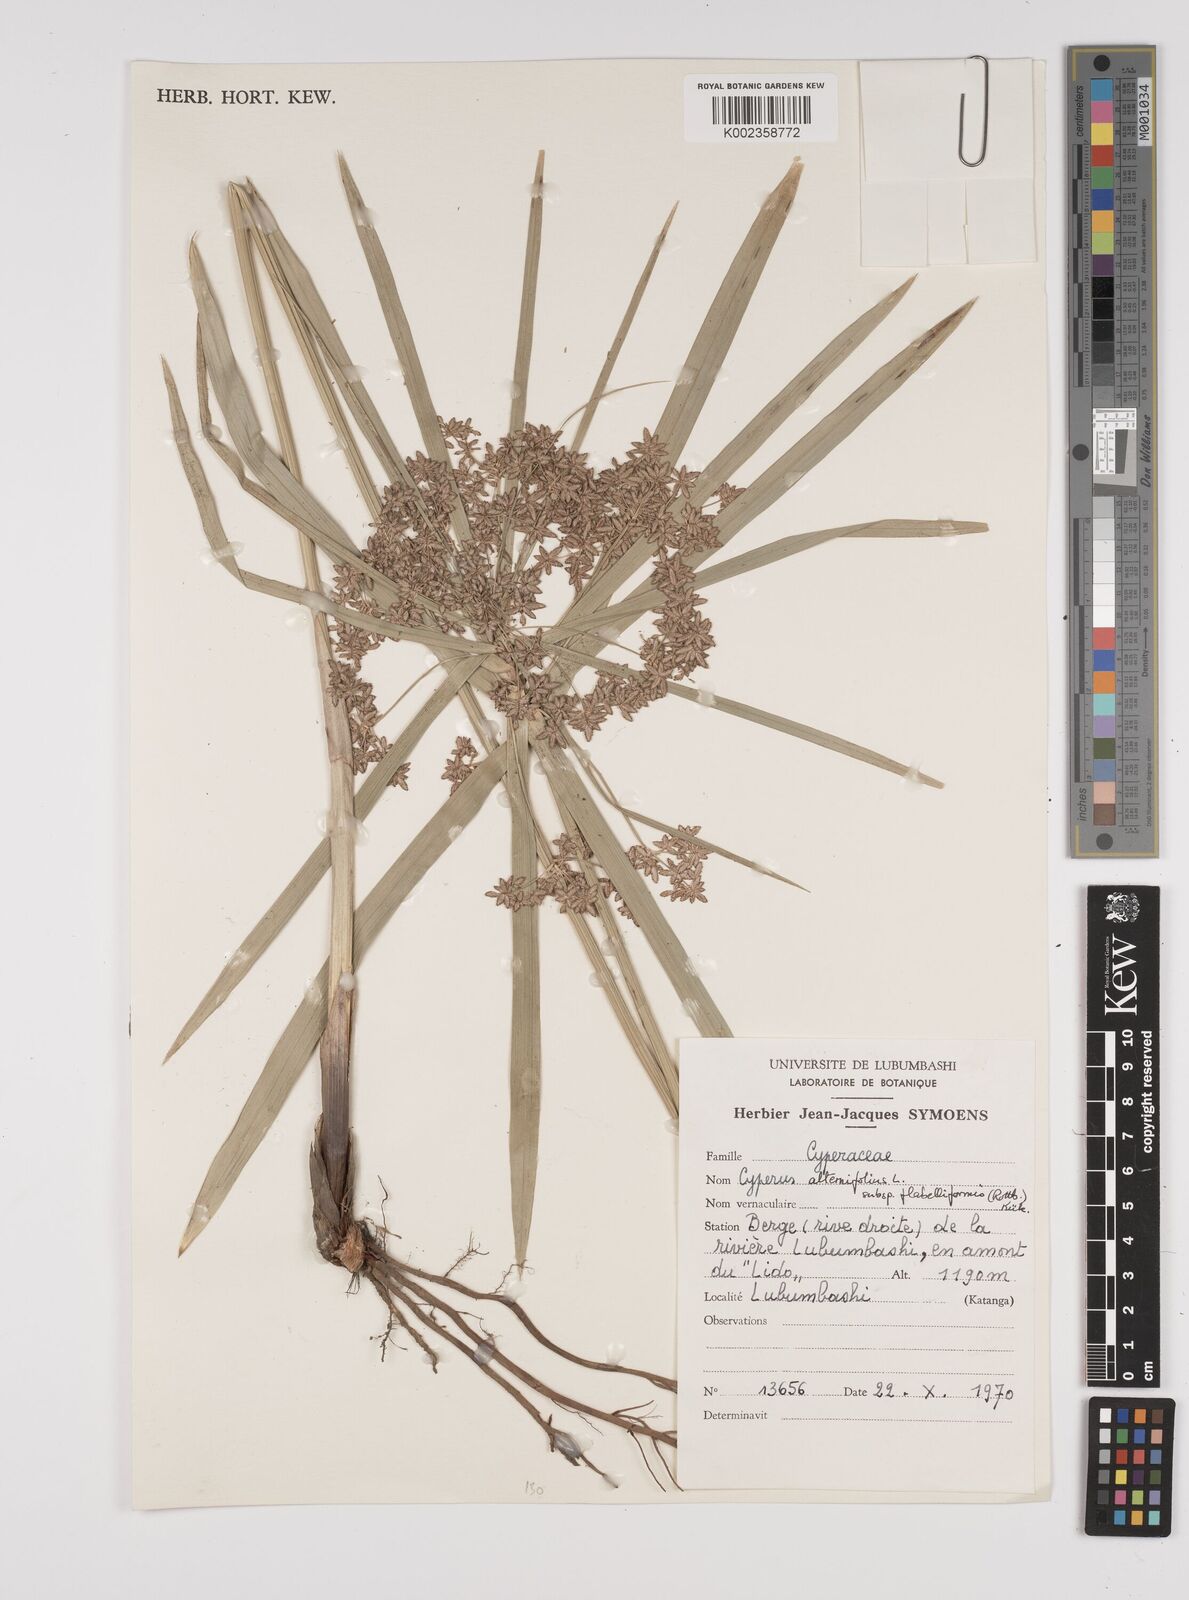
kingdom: Plantae
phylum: Tracheophyta
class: Liliopsida
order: Poales
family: Cyperaceae
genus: Cyperus
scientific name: Cyperus alternifolius
